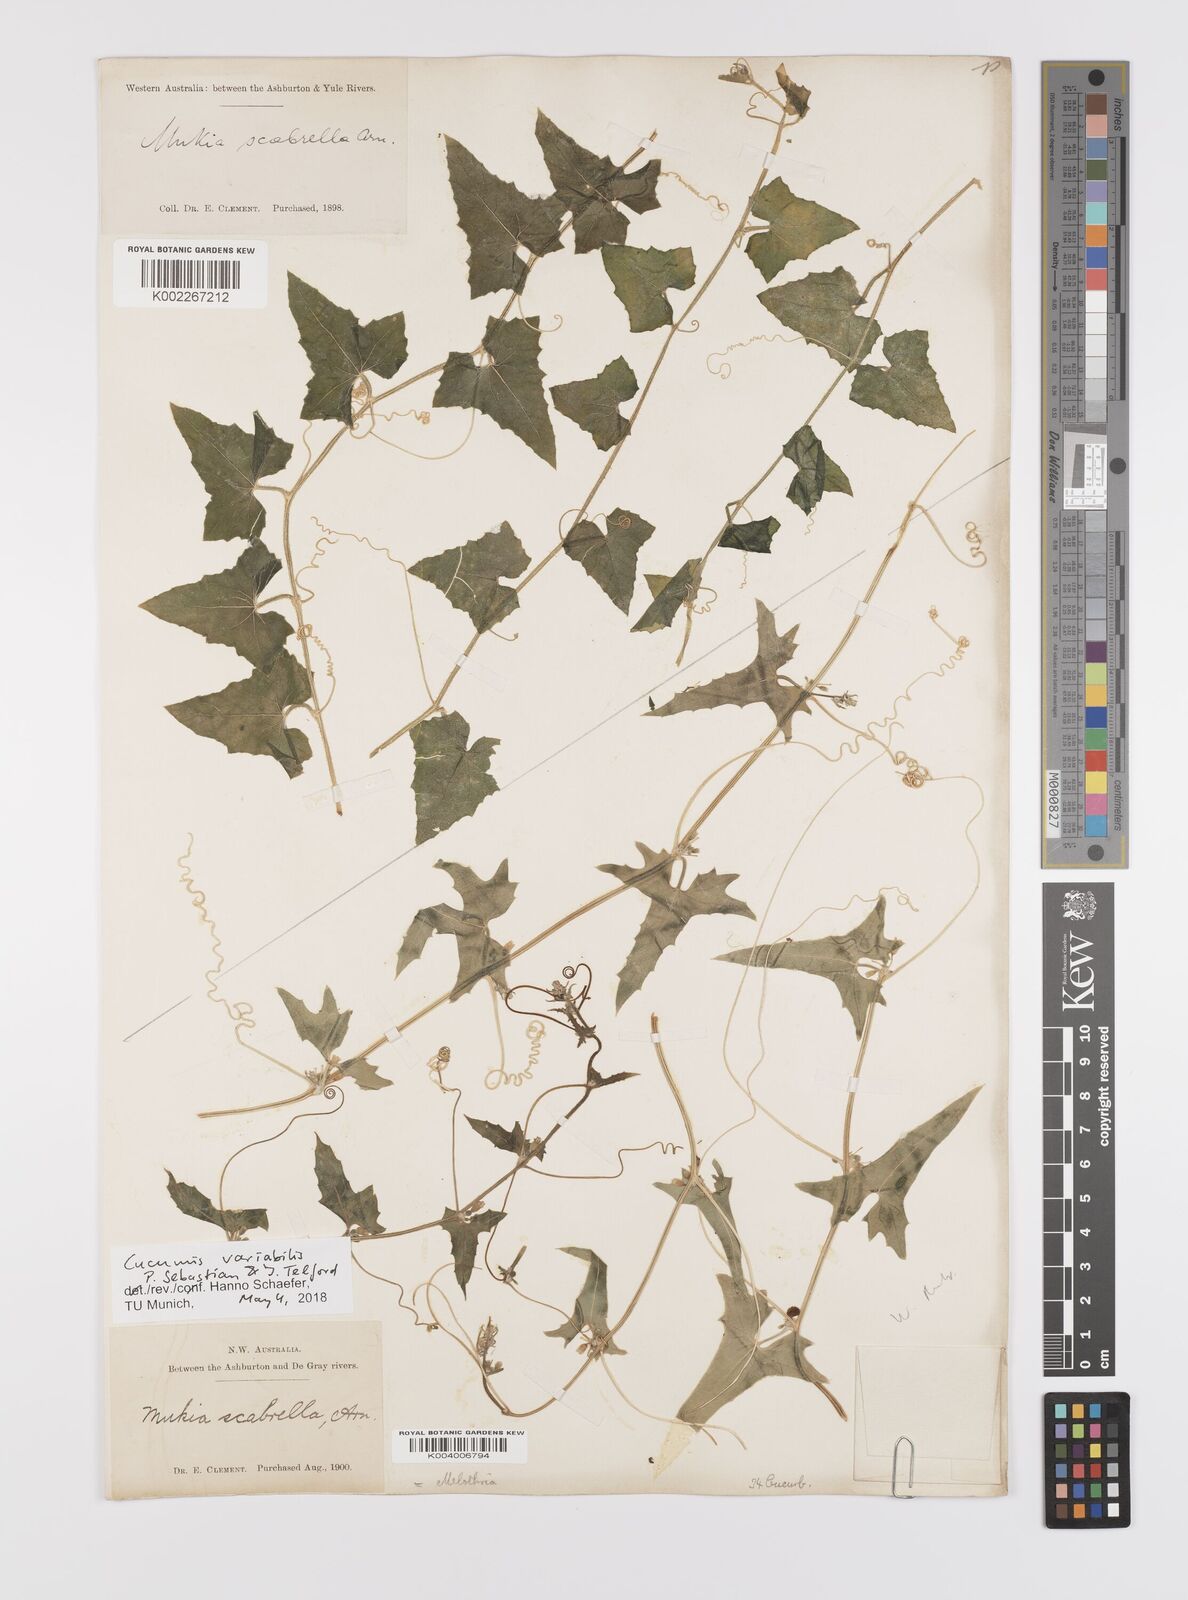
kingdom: Plantae
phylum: Tracheophyta
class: Magnoliopsida
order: Cucurbitales
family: Cucurbitaceae
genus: Cucumis
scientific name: Cucumis variabilis
